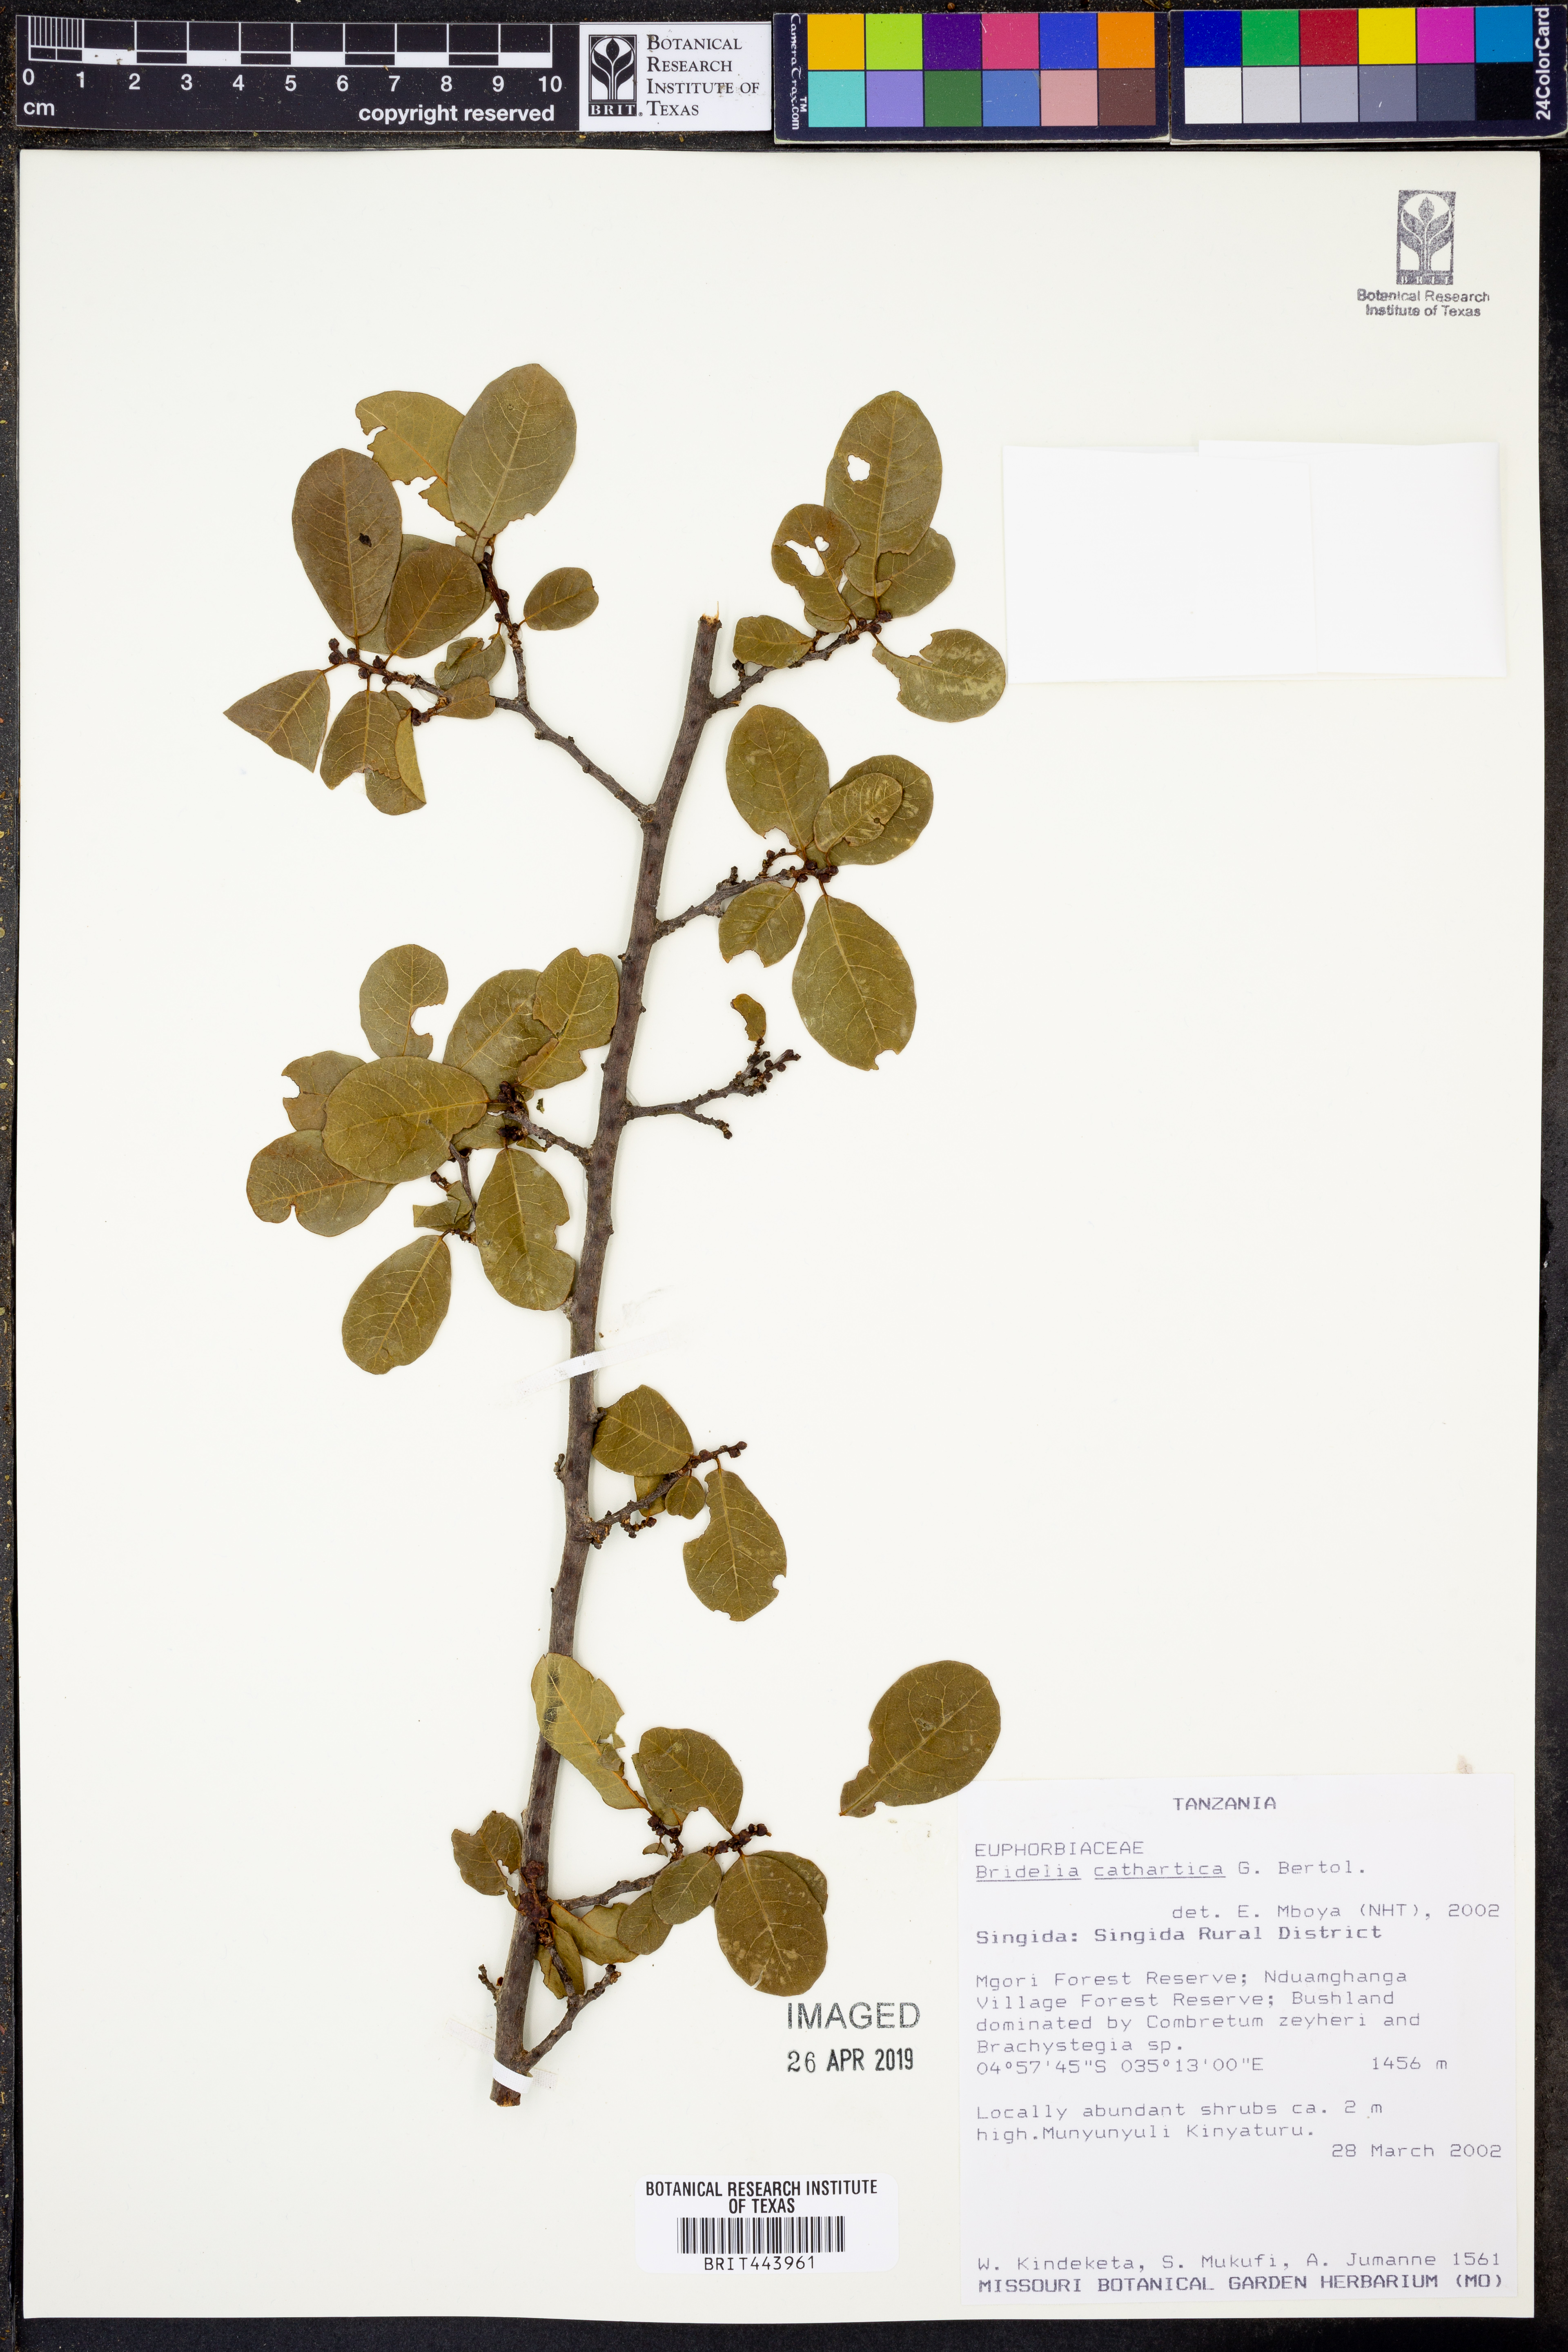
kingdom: Plantae
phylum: Tracheophyta
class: Magnoliopsida
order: Malpighiales
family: Phyllanthaceae
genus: Bridelia
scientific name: Bridelia cathartica
